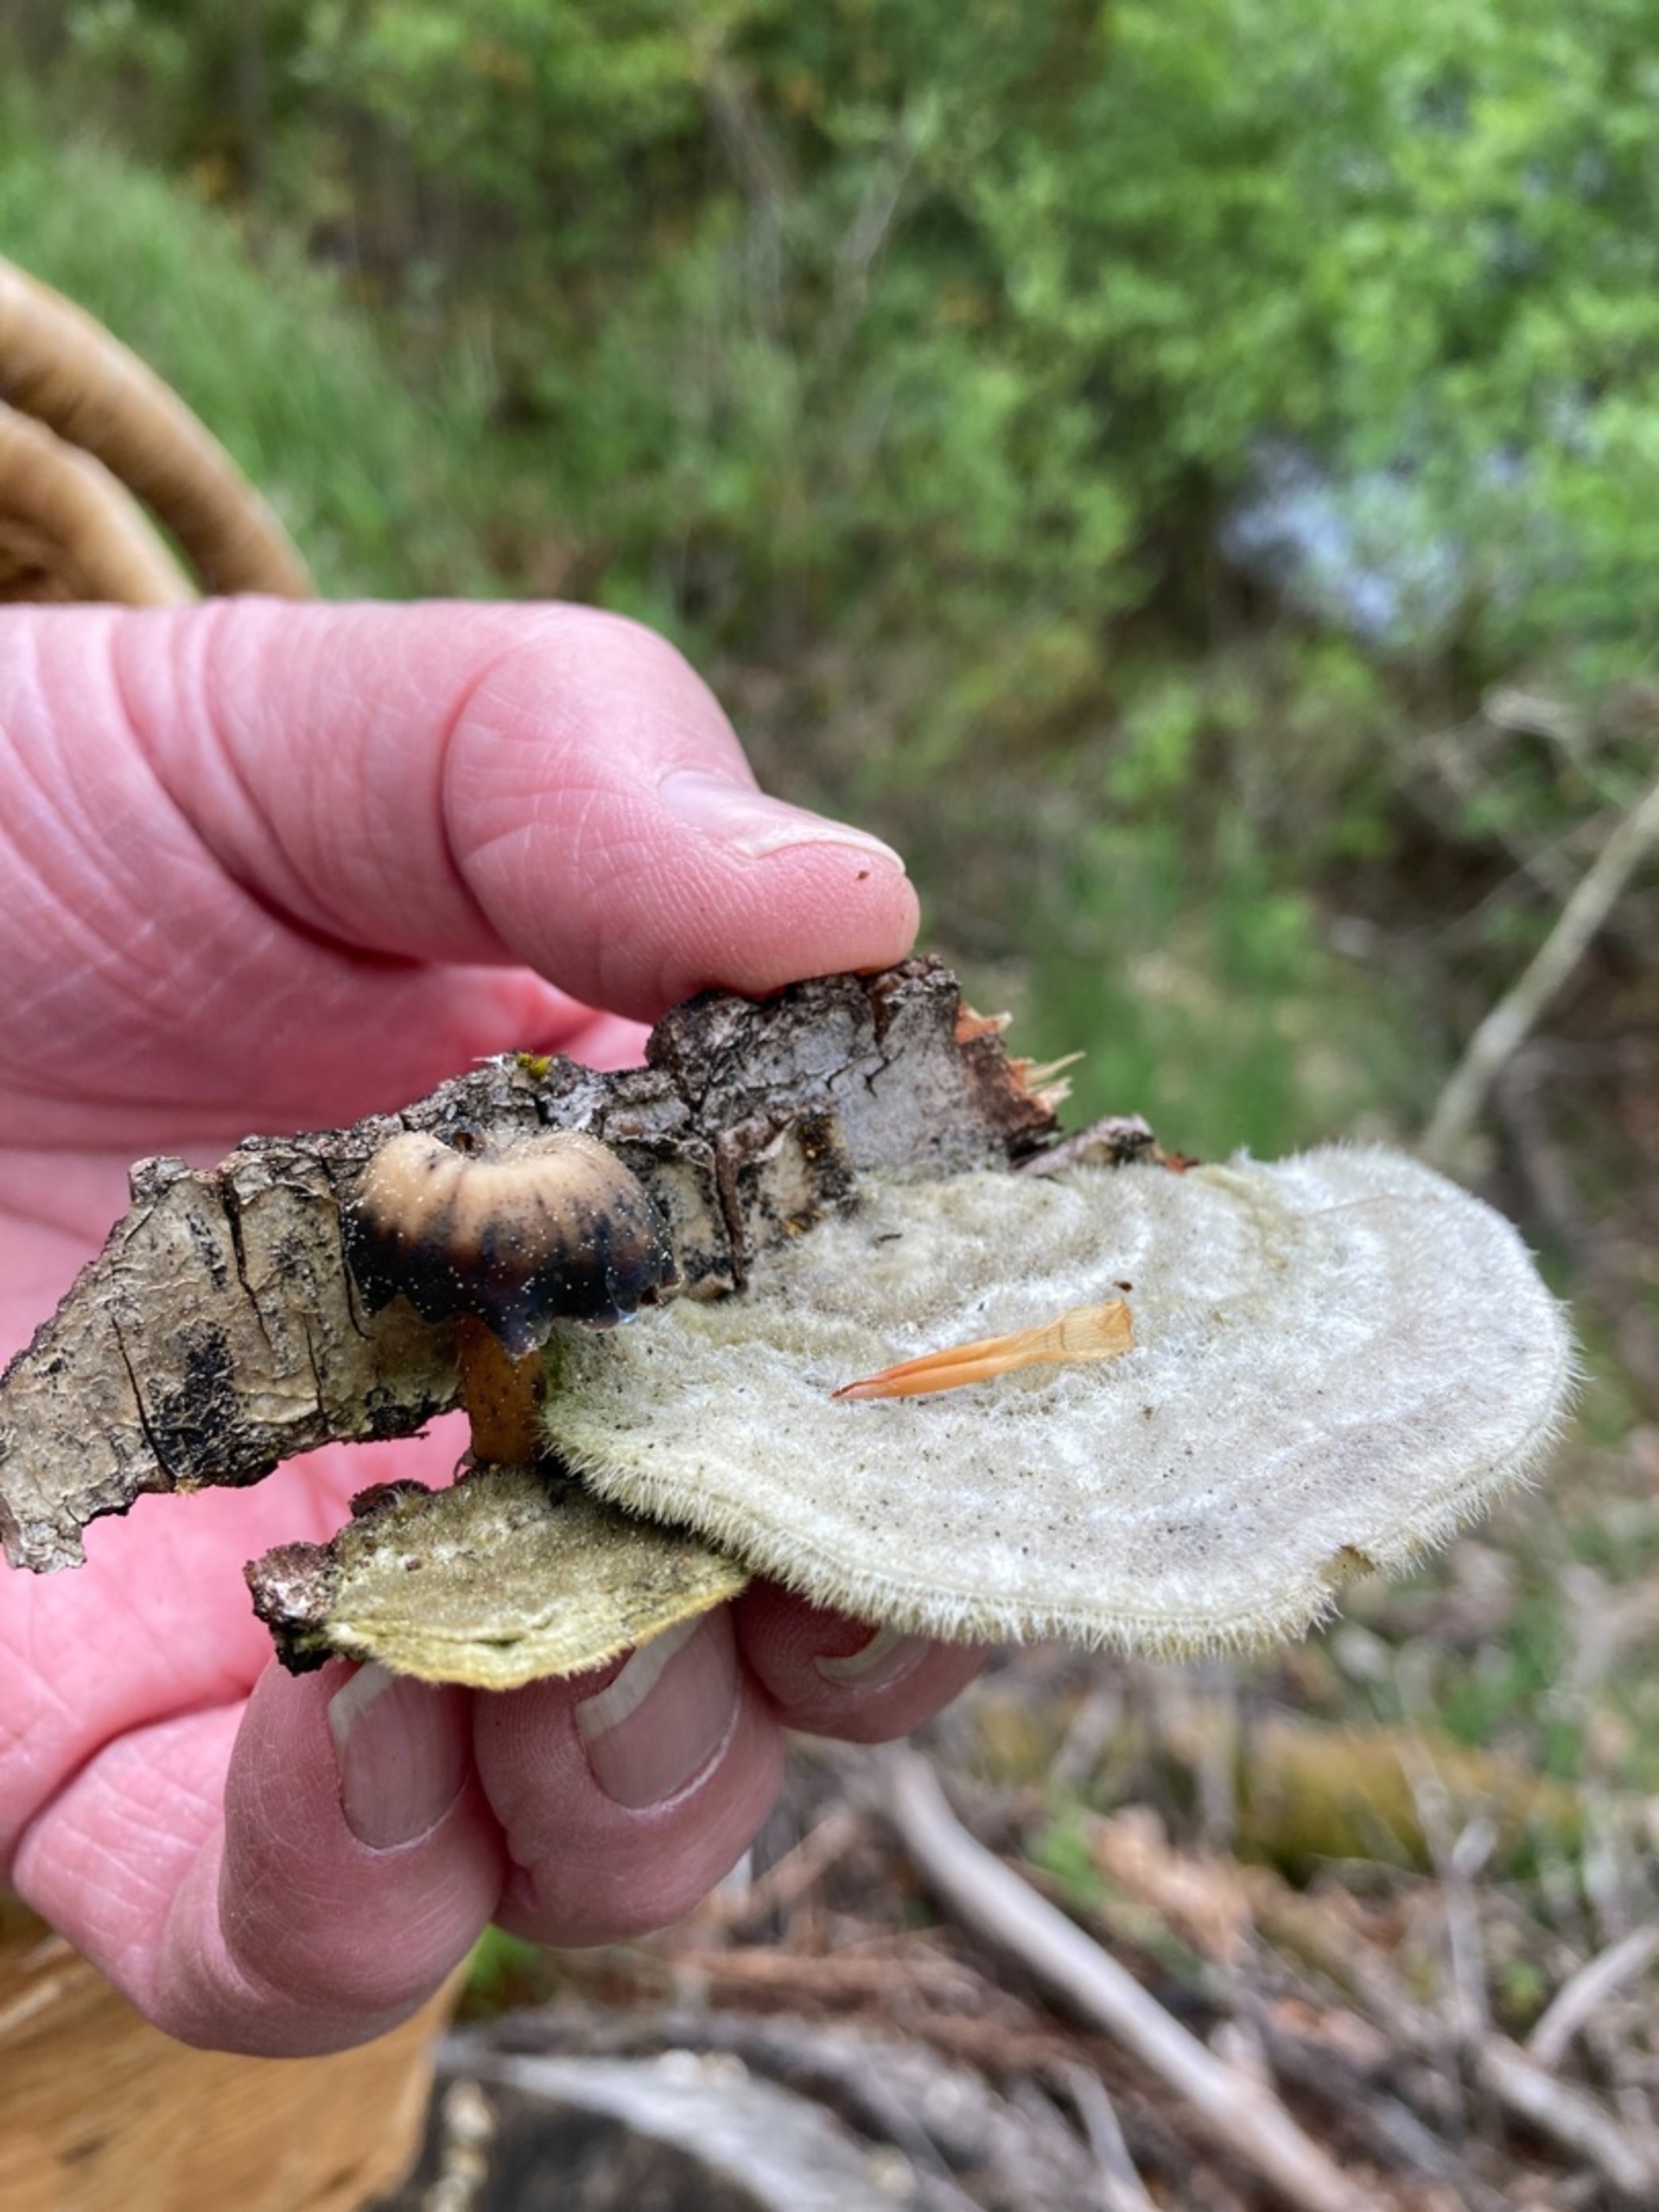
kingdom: Fungi
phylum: Basidiomycota
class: Agaricomycetes
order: Polyporales
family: Polyporaceae
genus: Trametes
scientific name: Trametes hirsuta
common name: Håret læderporesvamp
